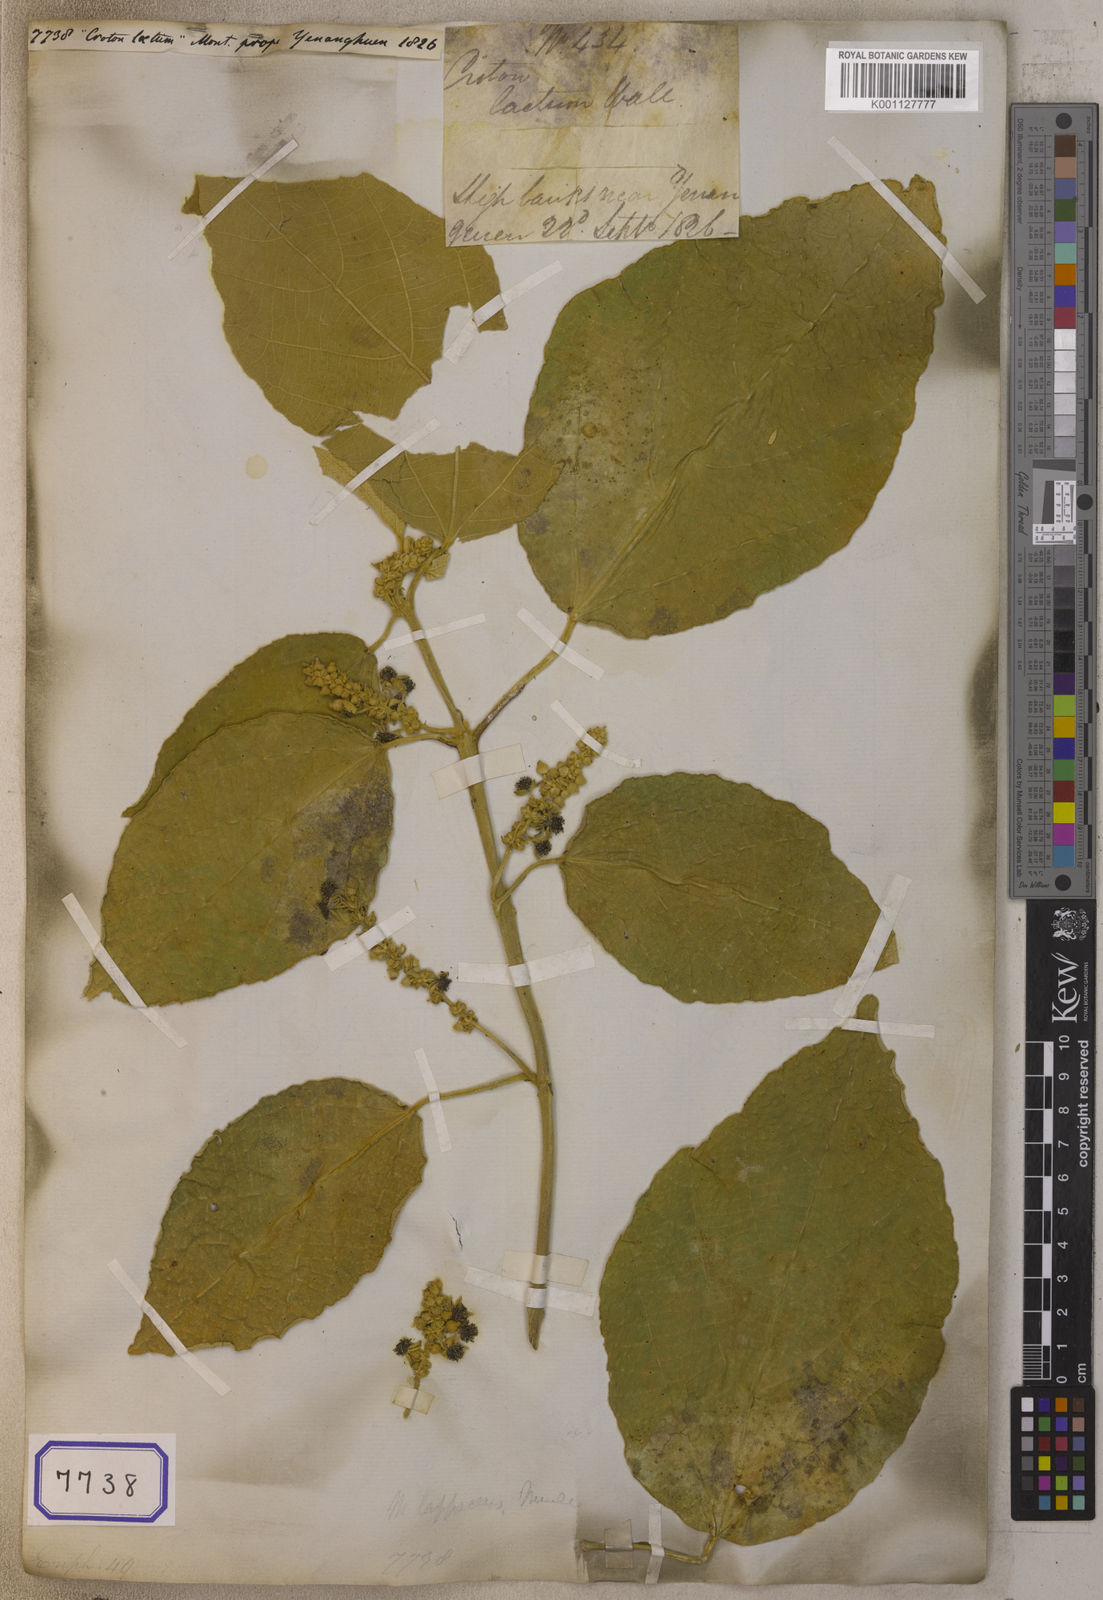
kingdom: Plantae
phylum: Tracheophyta
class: Magnoliopsida
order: Malpighiales
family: Euphorbiaceae
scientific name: Euphorbiaceae
